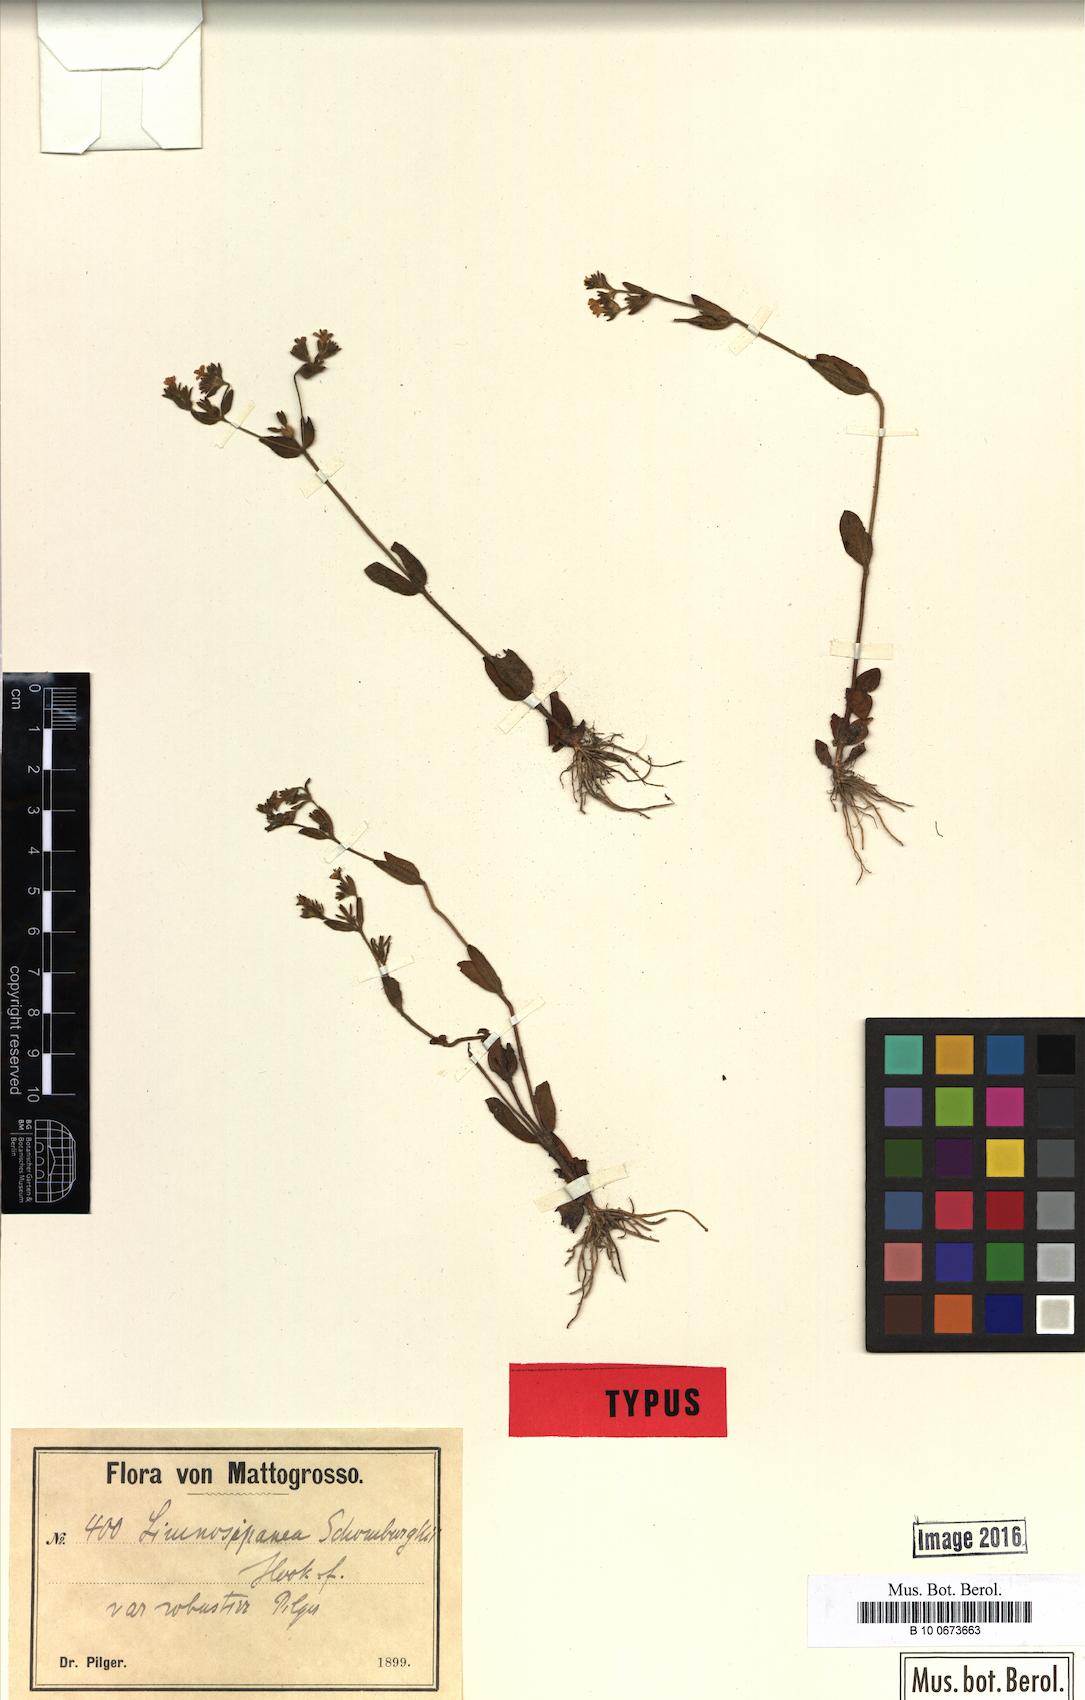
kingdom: Plantae
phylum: Tracheophyta
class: Magnoliopsida
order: Gentianales
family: Rubiaceae
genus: Limnosipanea
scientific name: Limnosipanea palustris
